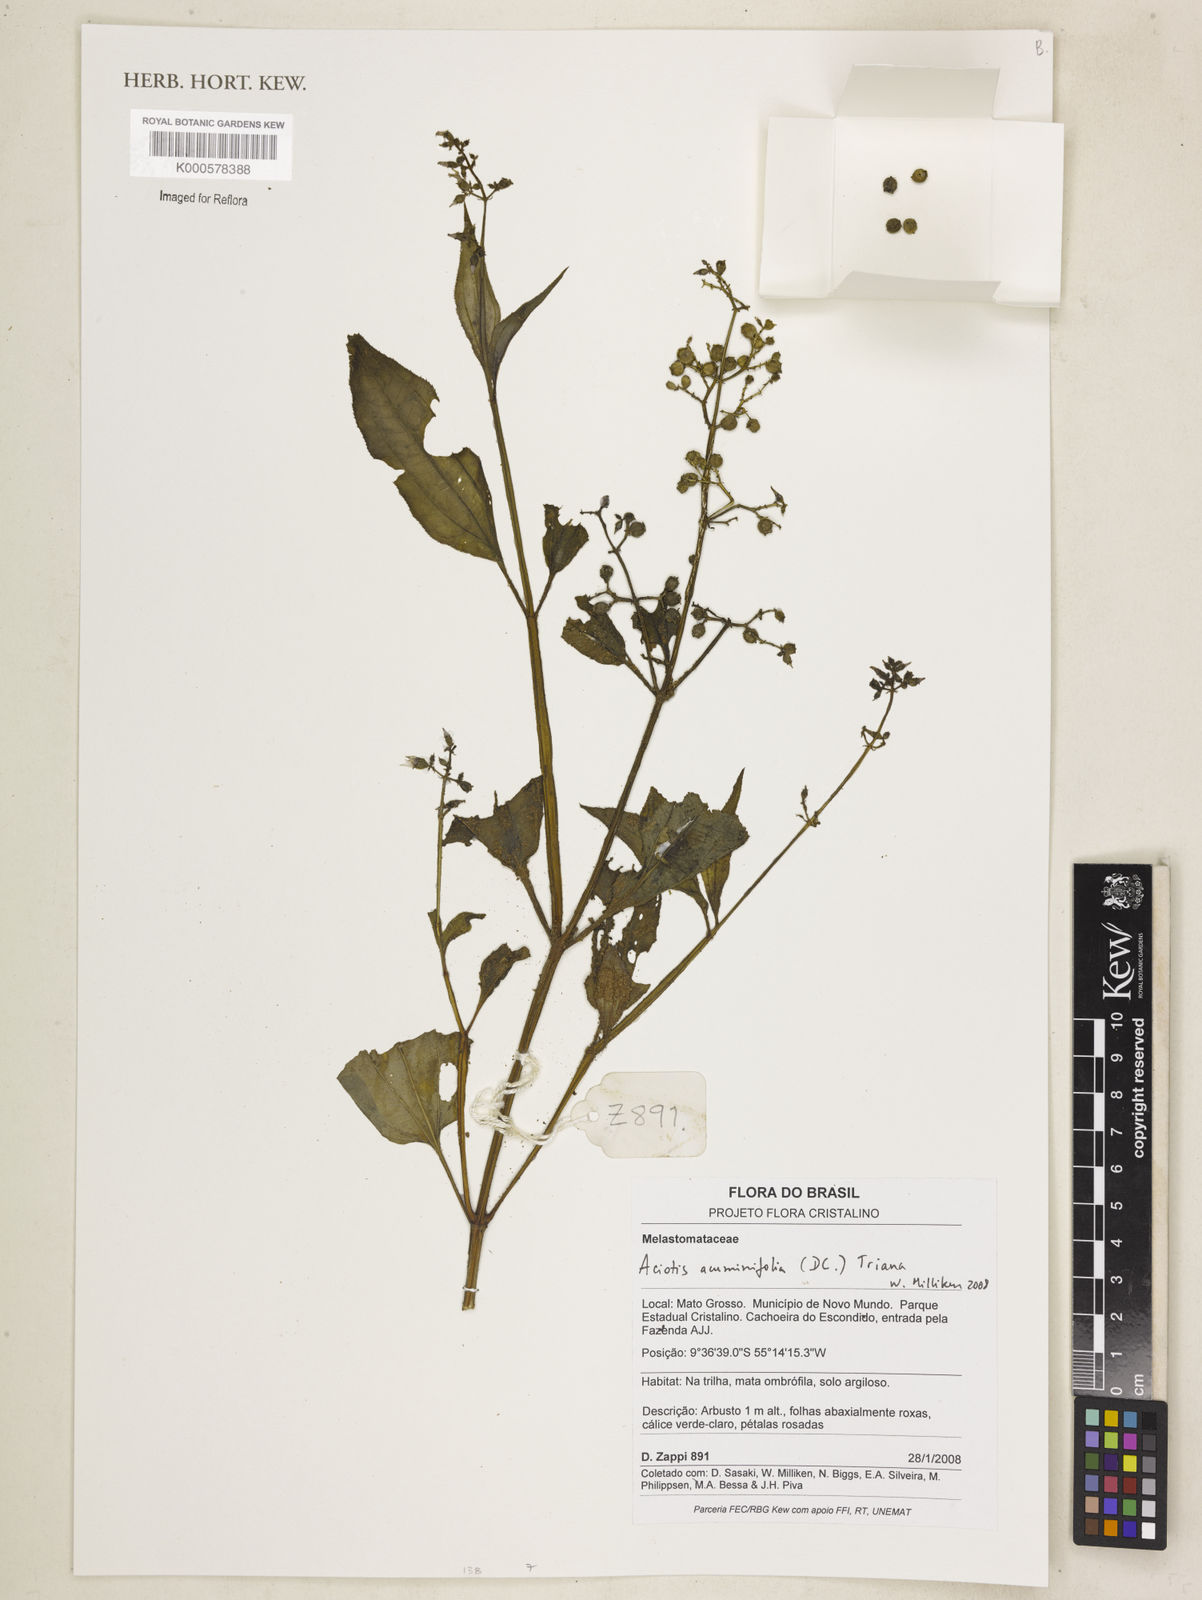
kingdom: Plantae
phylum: Tracheophyta
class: Magnoliopsida
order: Myrtales
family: Melastomataceae
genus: Aciotis
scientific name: Aciotis acuminifolia
